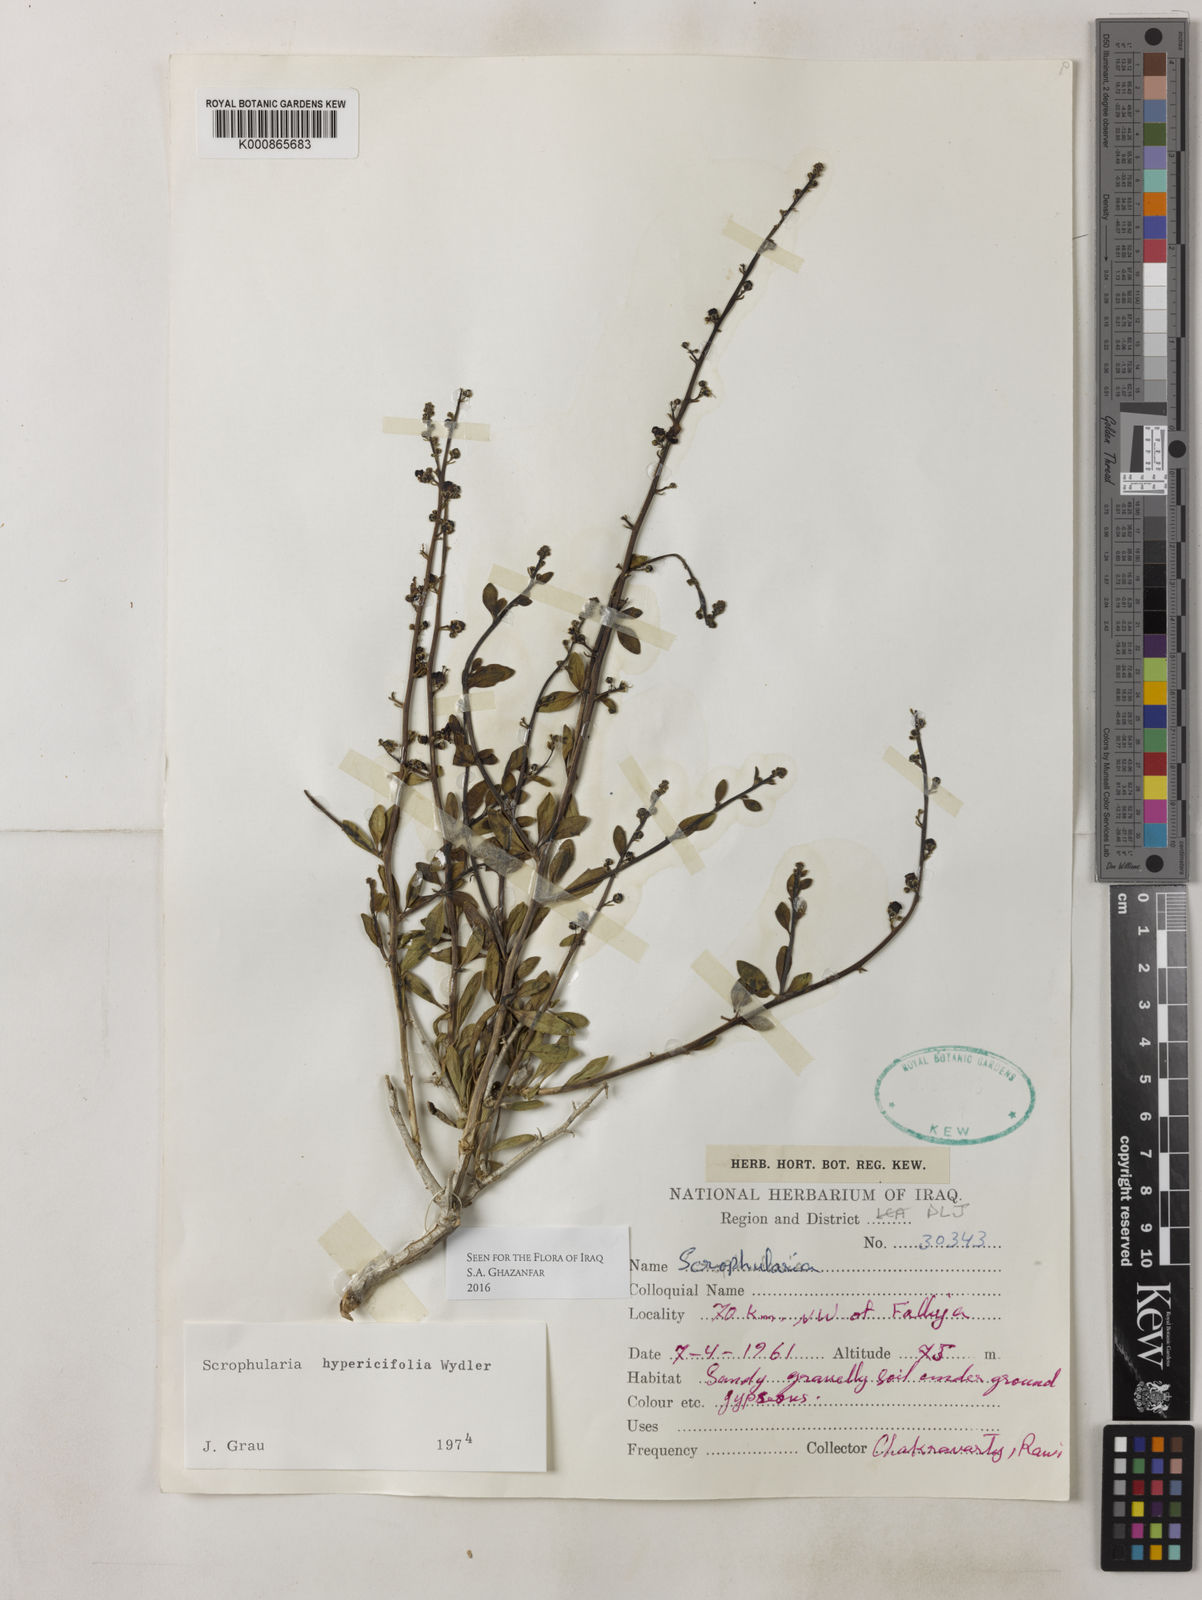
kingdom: Plantae
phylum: Tracheophyta
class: Magnoliopsida
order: Lamiales
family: Scrophulariaceae
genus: Scrophularia
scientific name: Scrophularia hypericifolia
